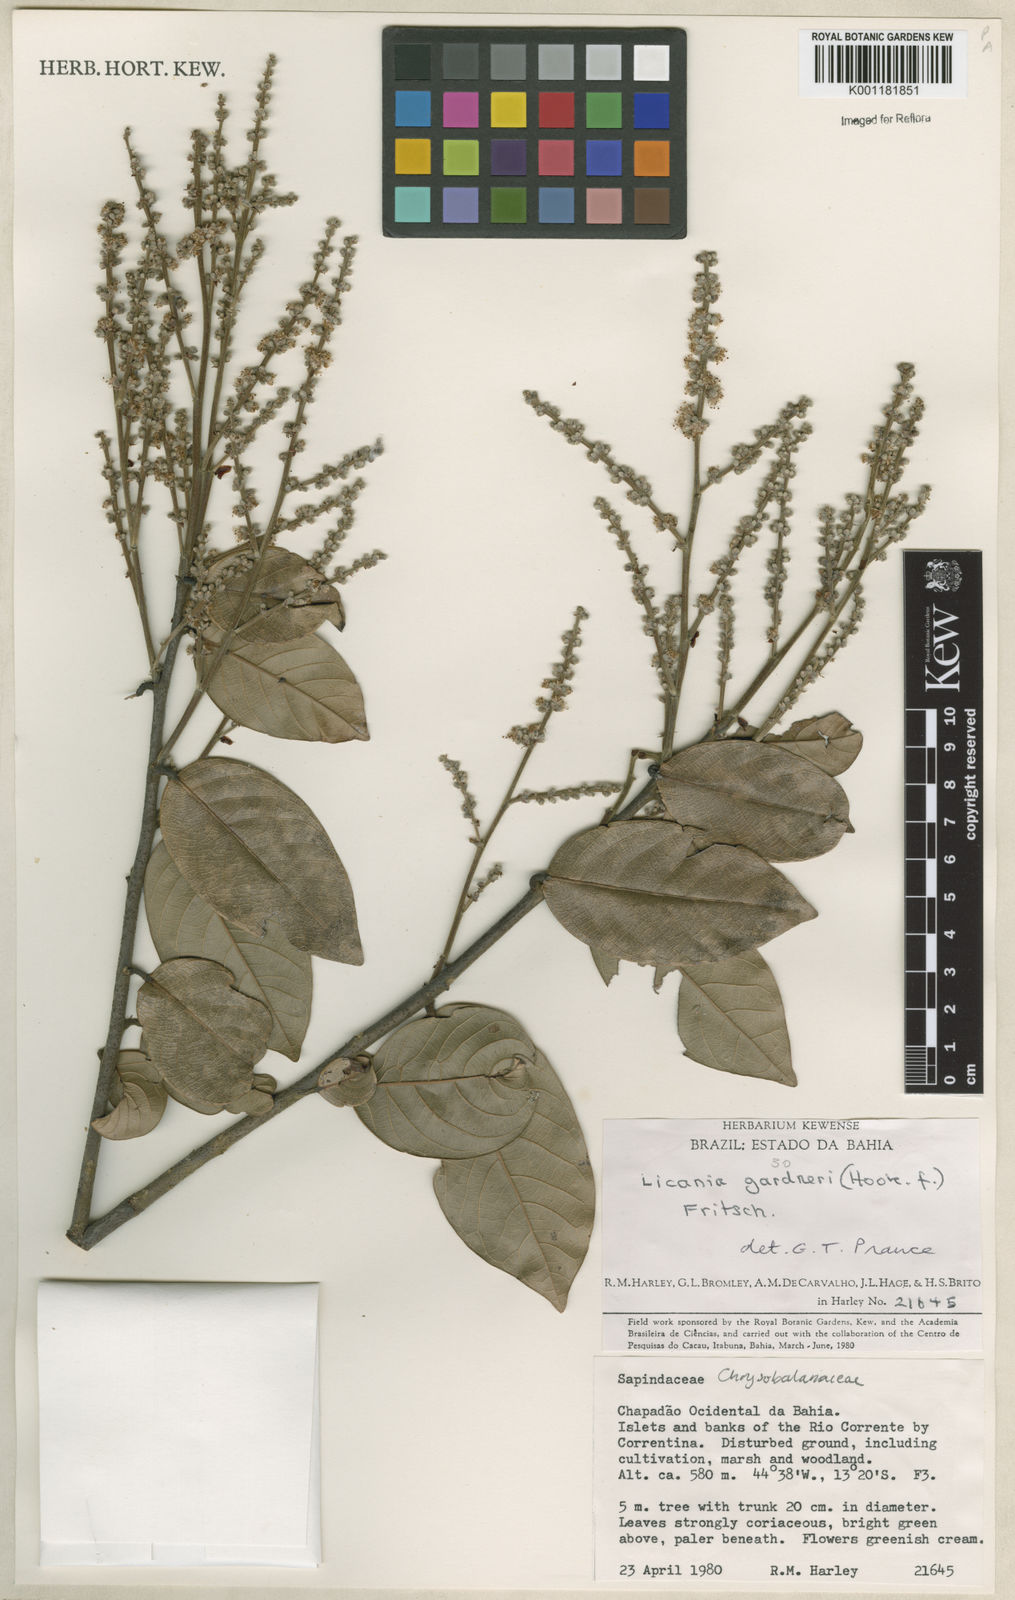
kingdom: Plantae
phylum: Tracheophyta
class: Magnoliopsida
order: Malpighiales
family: Chrysobalanaceae
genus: Leptobalanus
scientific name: Leptobalanus gardneri
